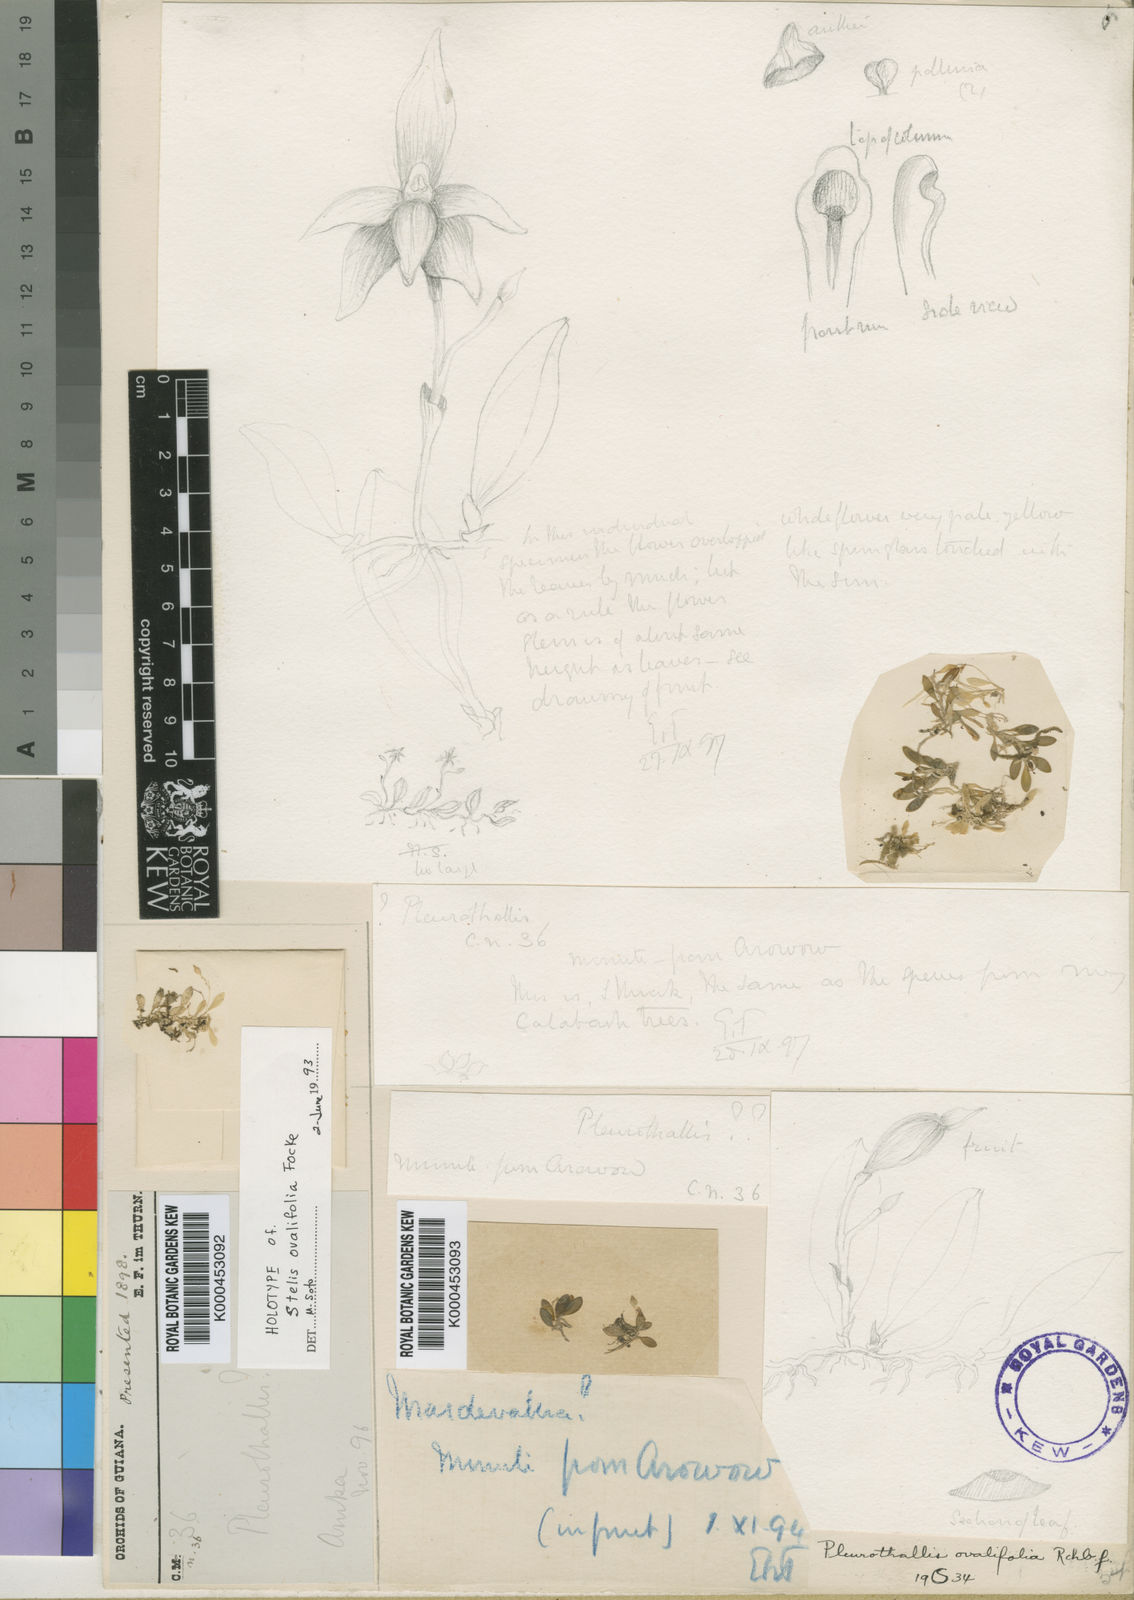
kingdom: Plantae
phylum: Tracheophyta
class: Liliopsida
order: Asparagales
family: Orchidaceae
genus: Platystele
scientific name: Platystele ovalifolia
